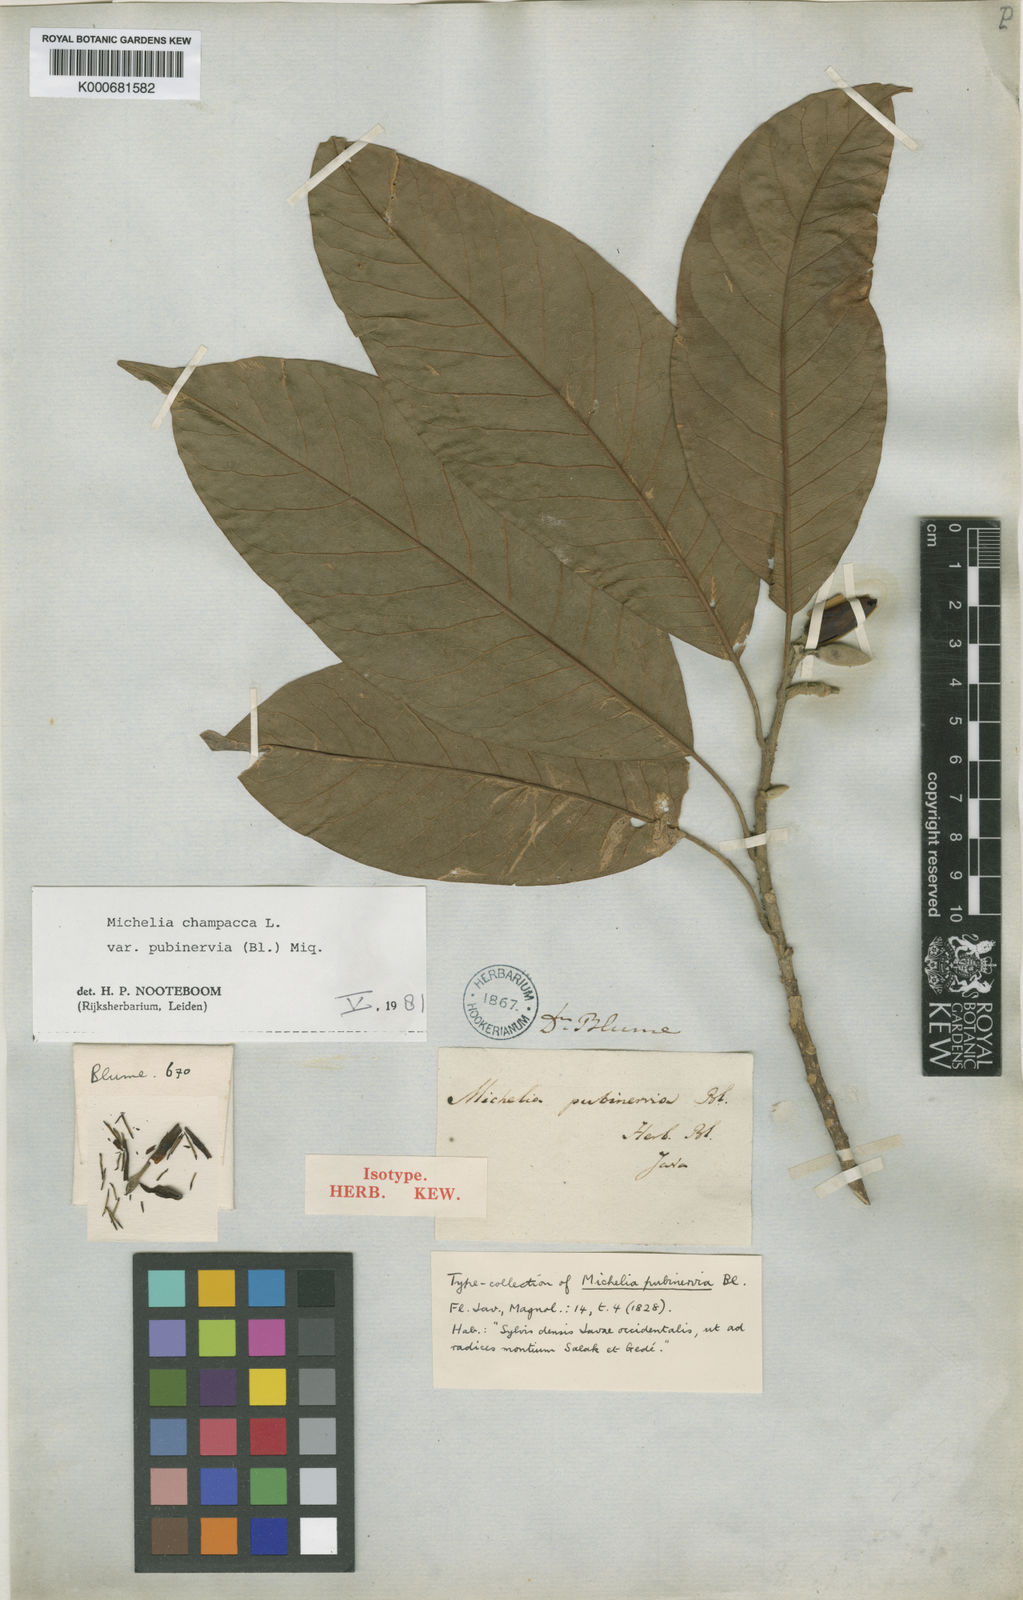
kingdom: Plantae
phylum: Tracheophyta
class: Magnoliopsida
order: Magnoliales
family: Magnoliaceae
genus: Magnolia
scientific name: Magnolia champaca
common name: Champak
